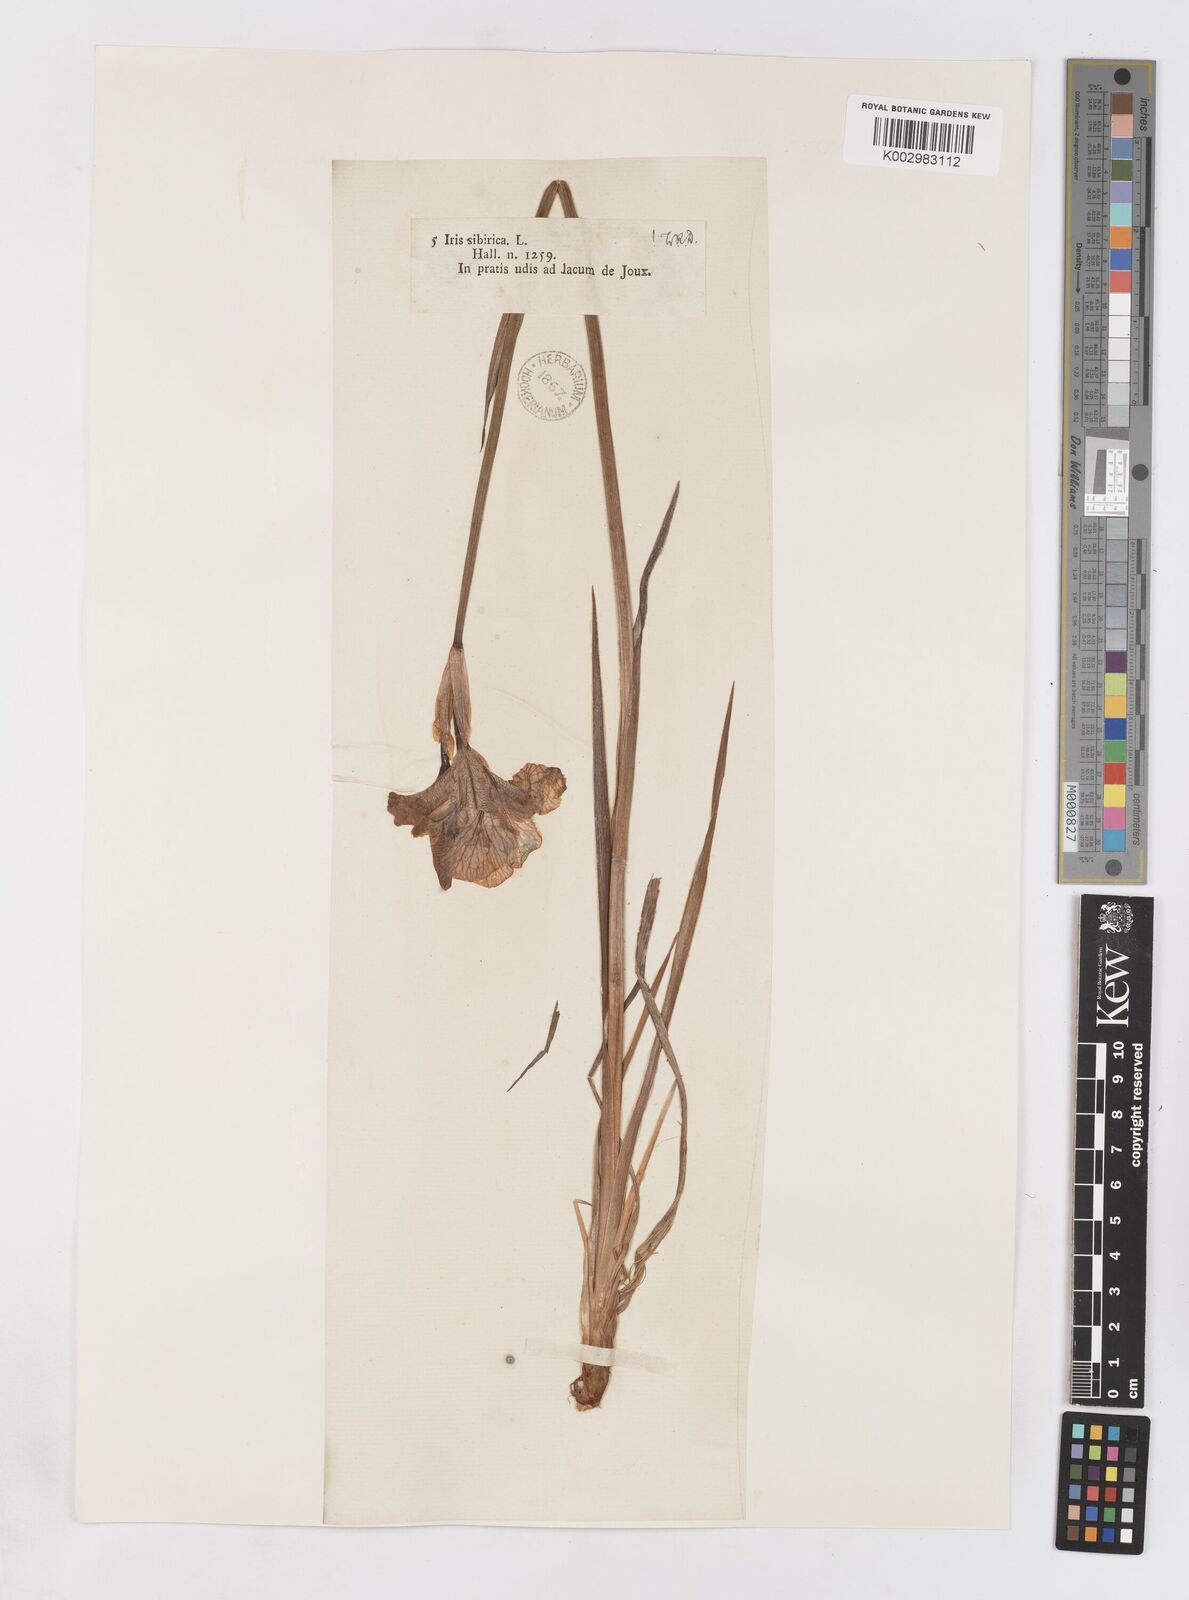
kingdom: Plantae
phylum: Tracheophyta
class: Liliopsida
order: Asparagales
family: Iridaceae
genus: Iris
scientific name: Iris sibirica
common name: Siberian iris
